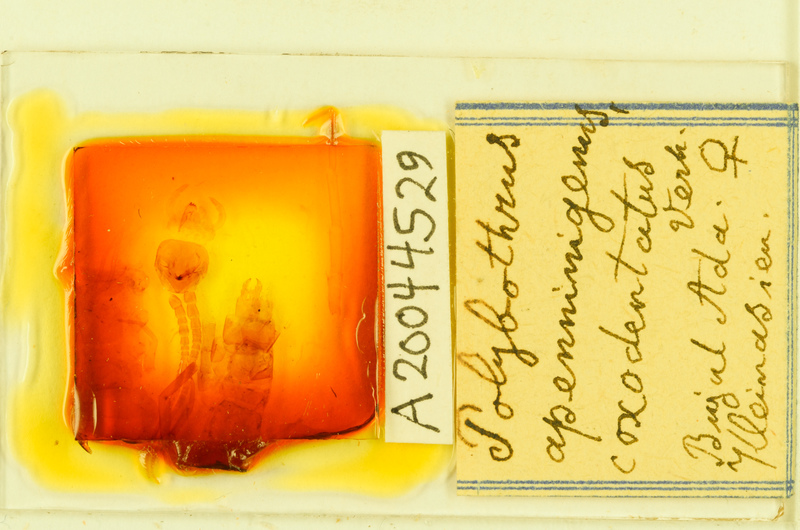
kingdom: Animalia
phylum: Arthropoda
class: Chilopoda
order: Lithobiomorpha
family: Lithobiidae
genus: Polybothrus
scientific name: Polybothrus
